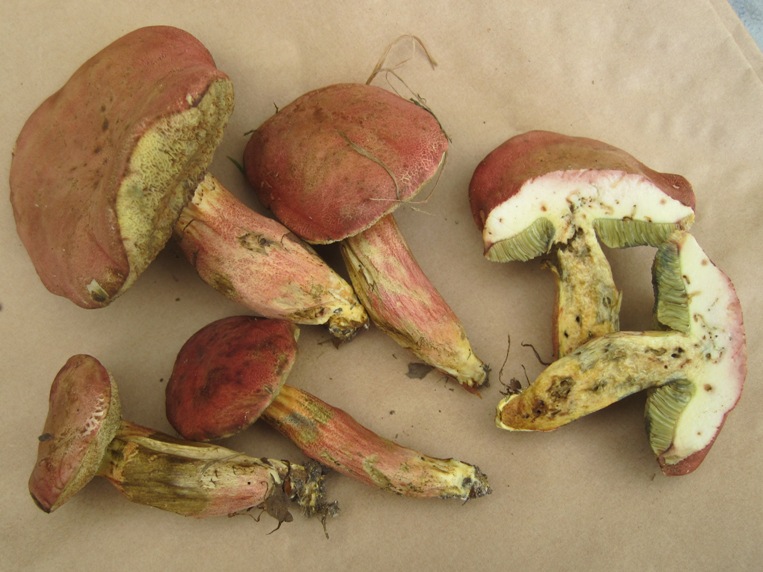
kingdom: Fungi
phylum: Basidiomycota
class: Agaricomycetes
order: Boletales
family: Boletaceae
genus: Hortiboletus
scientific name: Hortiboletus rubellus
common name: blodrød rørhat
